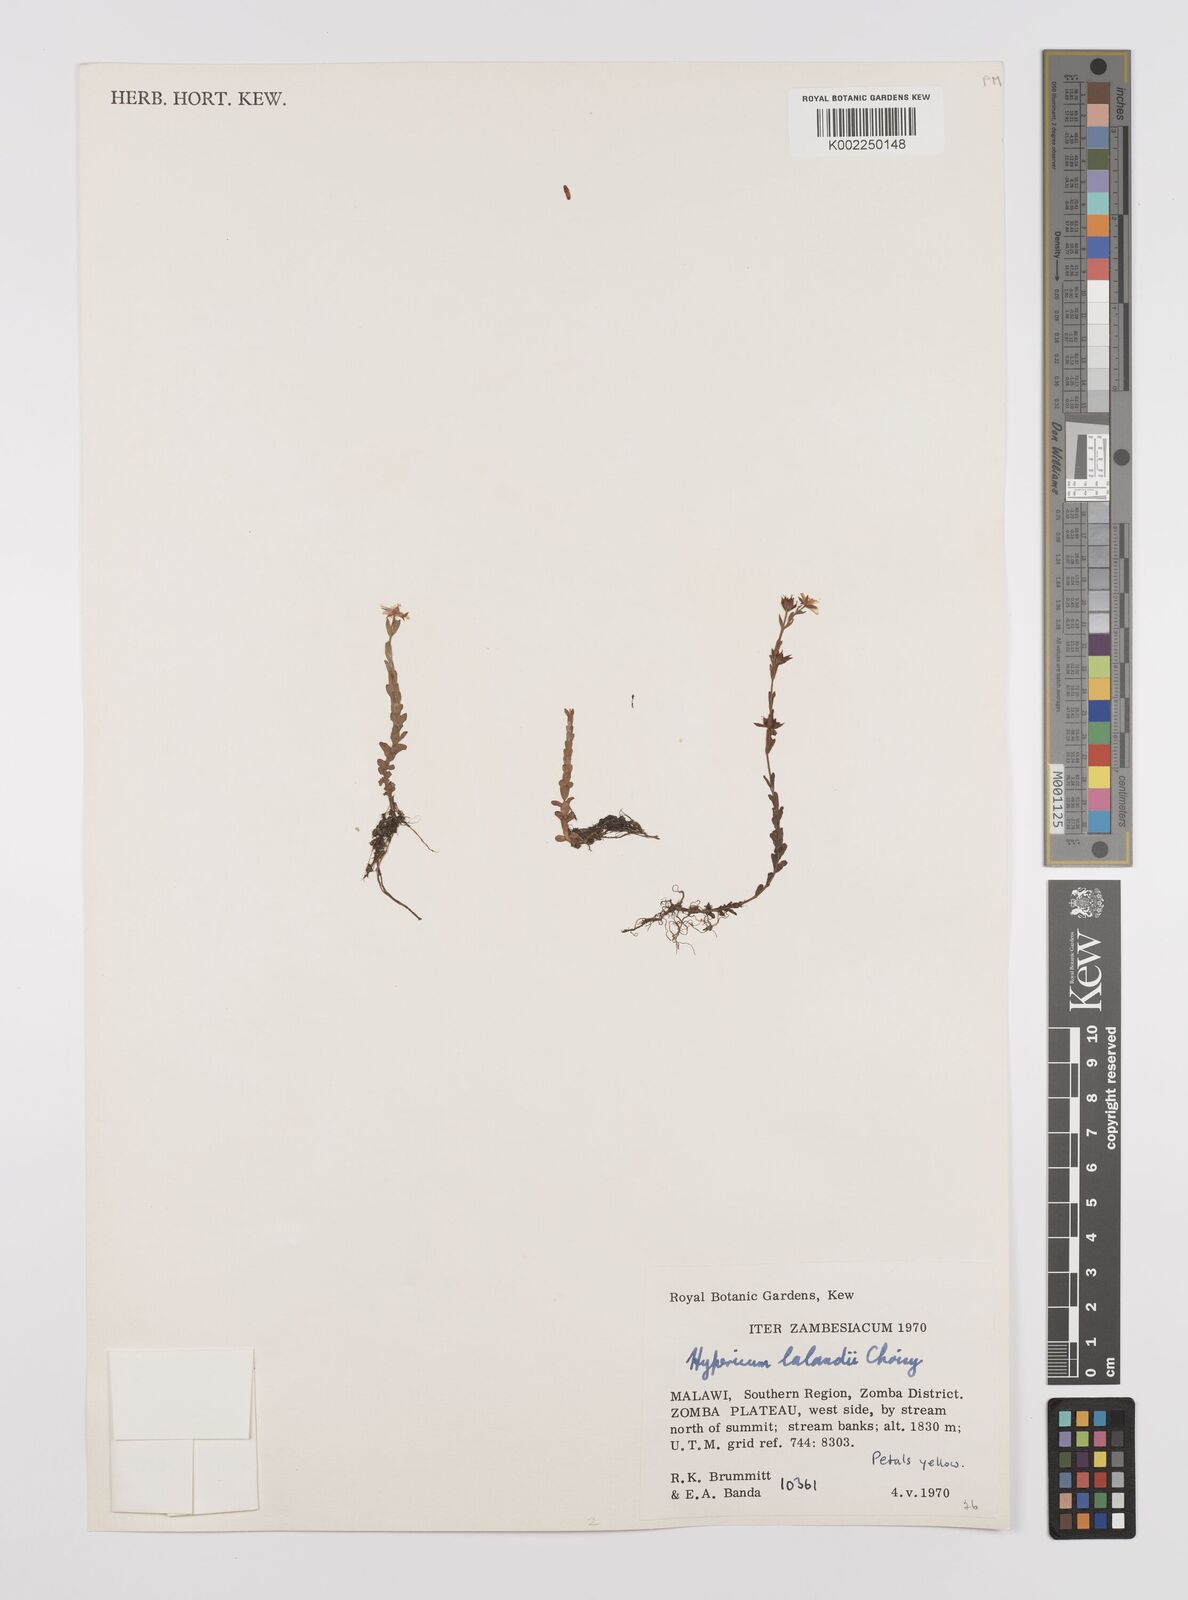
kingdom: Plantae
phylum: Tracheophyta
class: Magnoliopsida
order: Malpighiales
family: Hypericaceae
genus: Hypericum
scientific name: Hypericum lalandii
